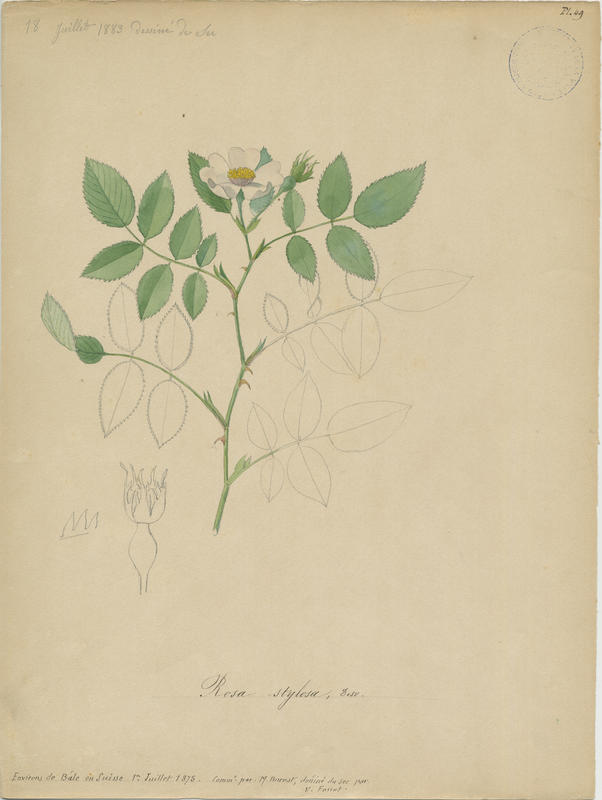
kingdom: Plantae
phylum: Tracheophyta
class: Magnoliopsida
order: Rosales
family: Rosaceae
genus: Rosa
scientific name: Rosa stylosa
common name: Short-styled field-rose
